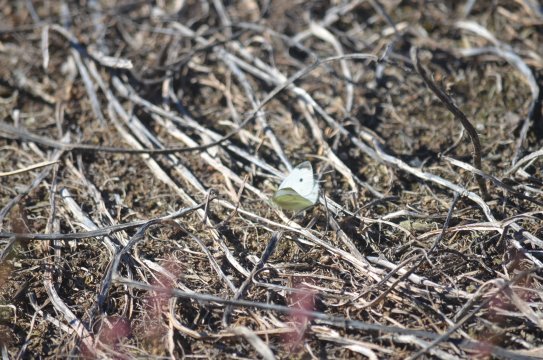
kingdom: Animalia
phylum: Arthropoda
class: Insecta
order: Lepidoptera
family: Pieridae
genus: Pieris
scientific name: Pieris rapae
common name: Cabbage White
